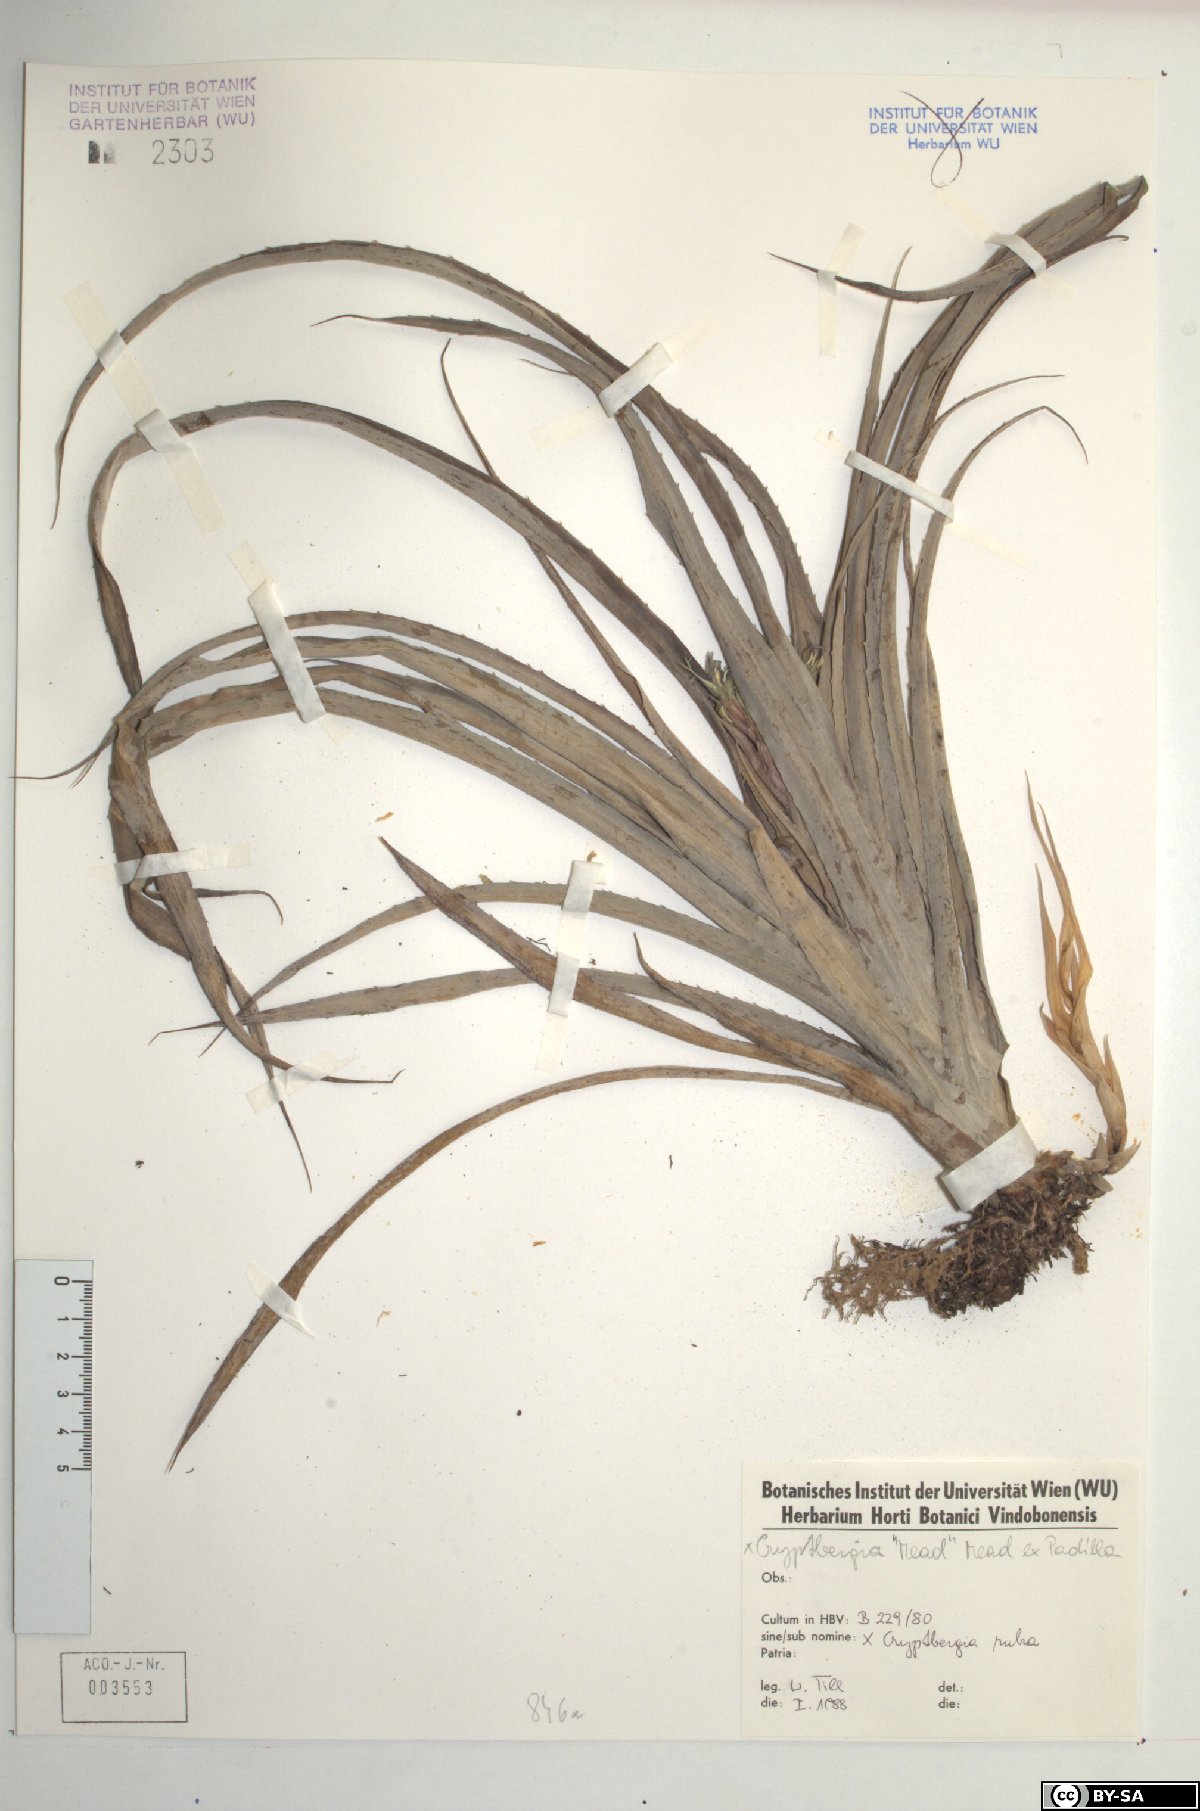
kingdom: Plantae
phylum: Tracheophyta
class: Liliopsida
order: Poales
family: Bromeliaceae
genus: Cryptbergia
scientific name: Cryptbergia rubra
